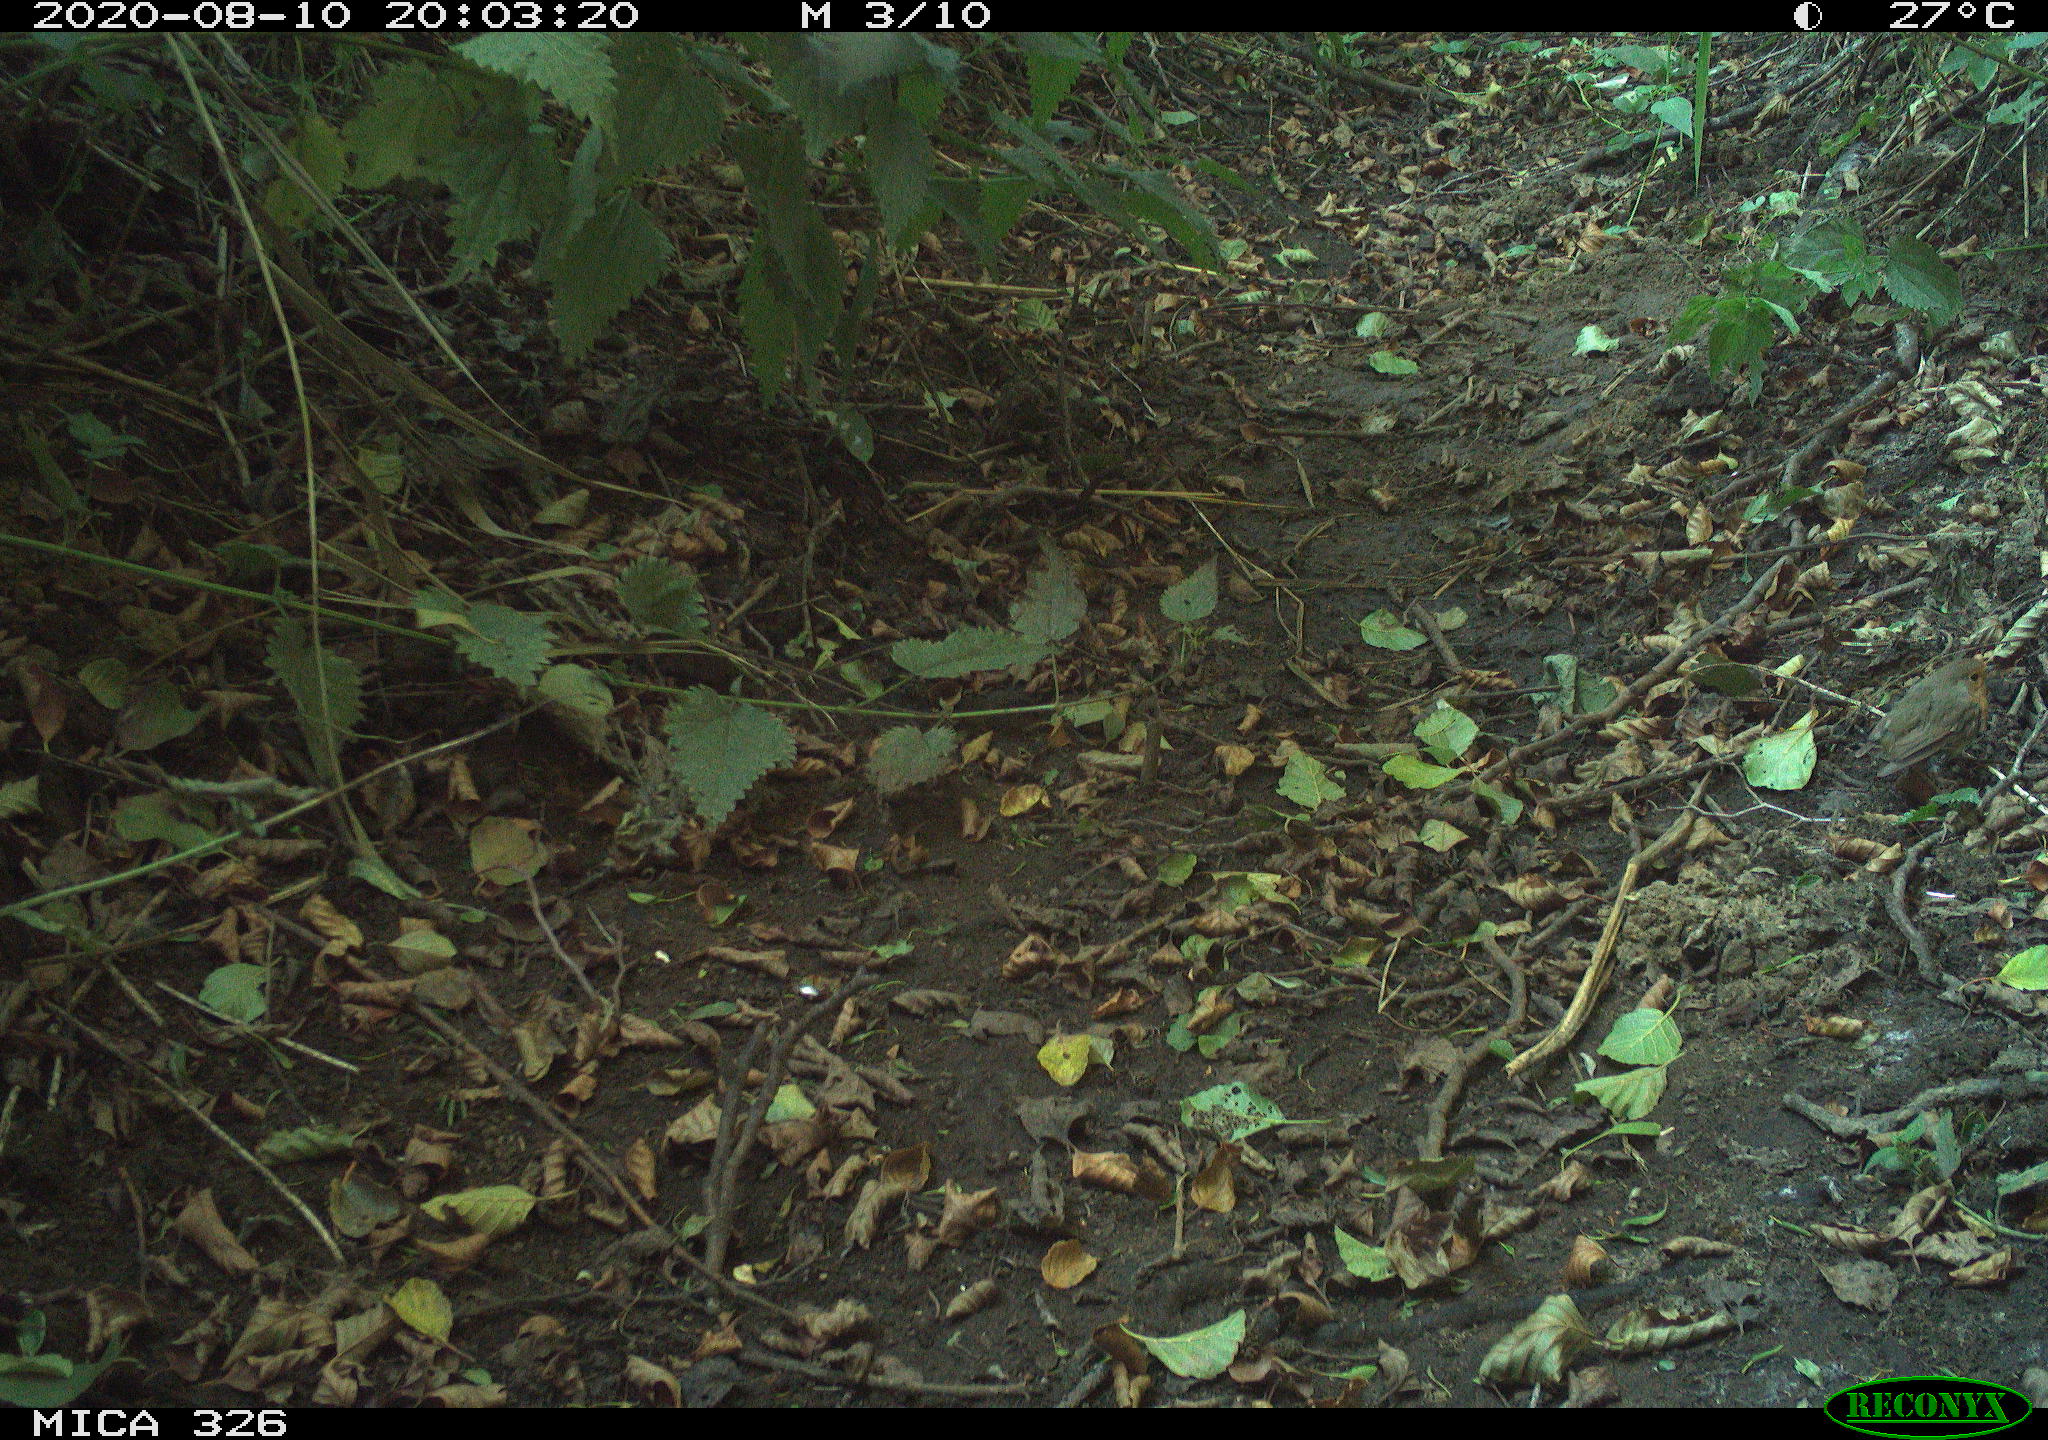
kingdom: Animalia
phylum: Chordata
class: Aves
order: Passeriformes
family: Muscicapidae
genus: Erithacus
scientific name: Erithacus rubecula
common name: European robin
